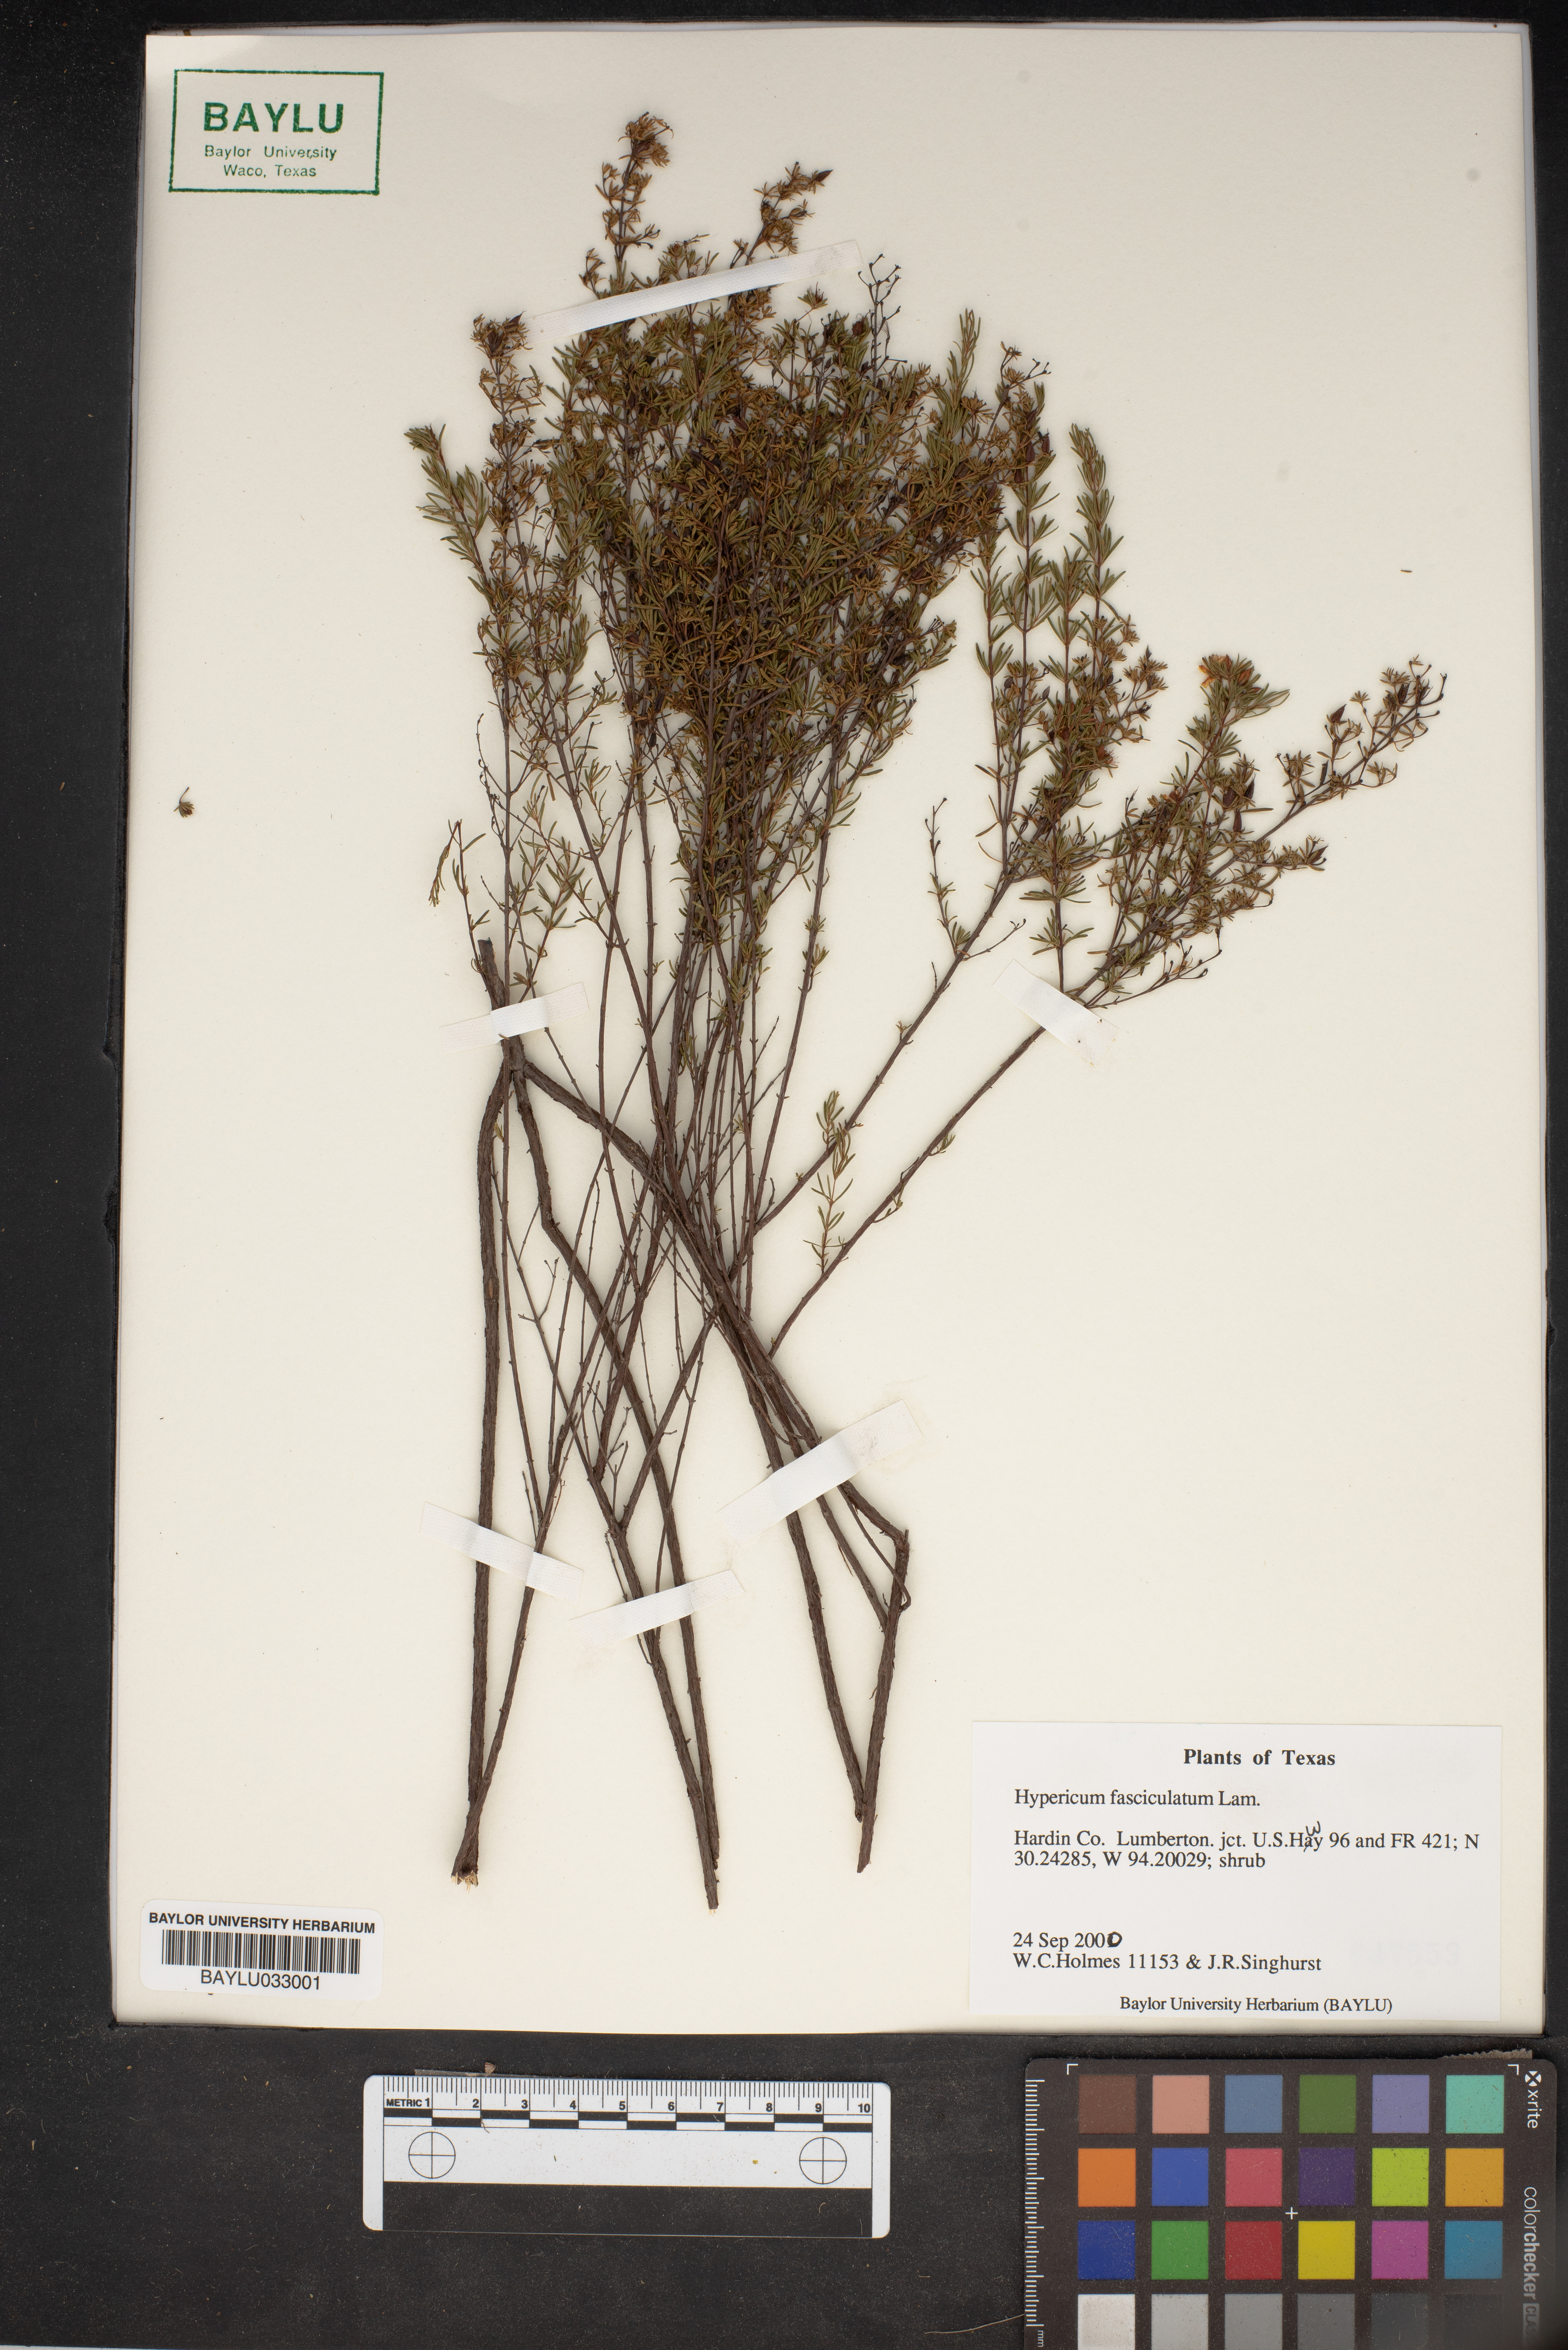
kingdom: Plantae
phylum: Tracheophyta
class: Magnoliopsida
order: Malpighiales
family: Hypericaceae
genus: Hypericum
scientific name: Hypericum fasciculatum
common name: Peelbark st. john's wort
